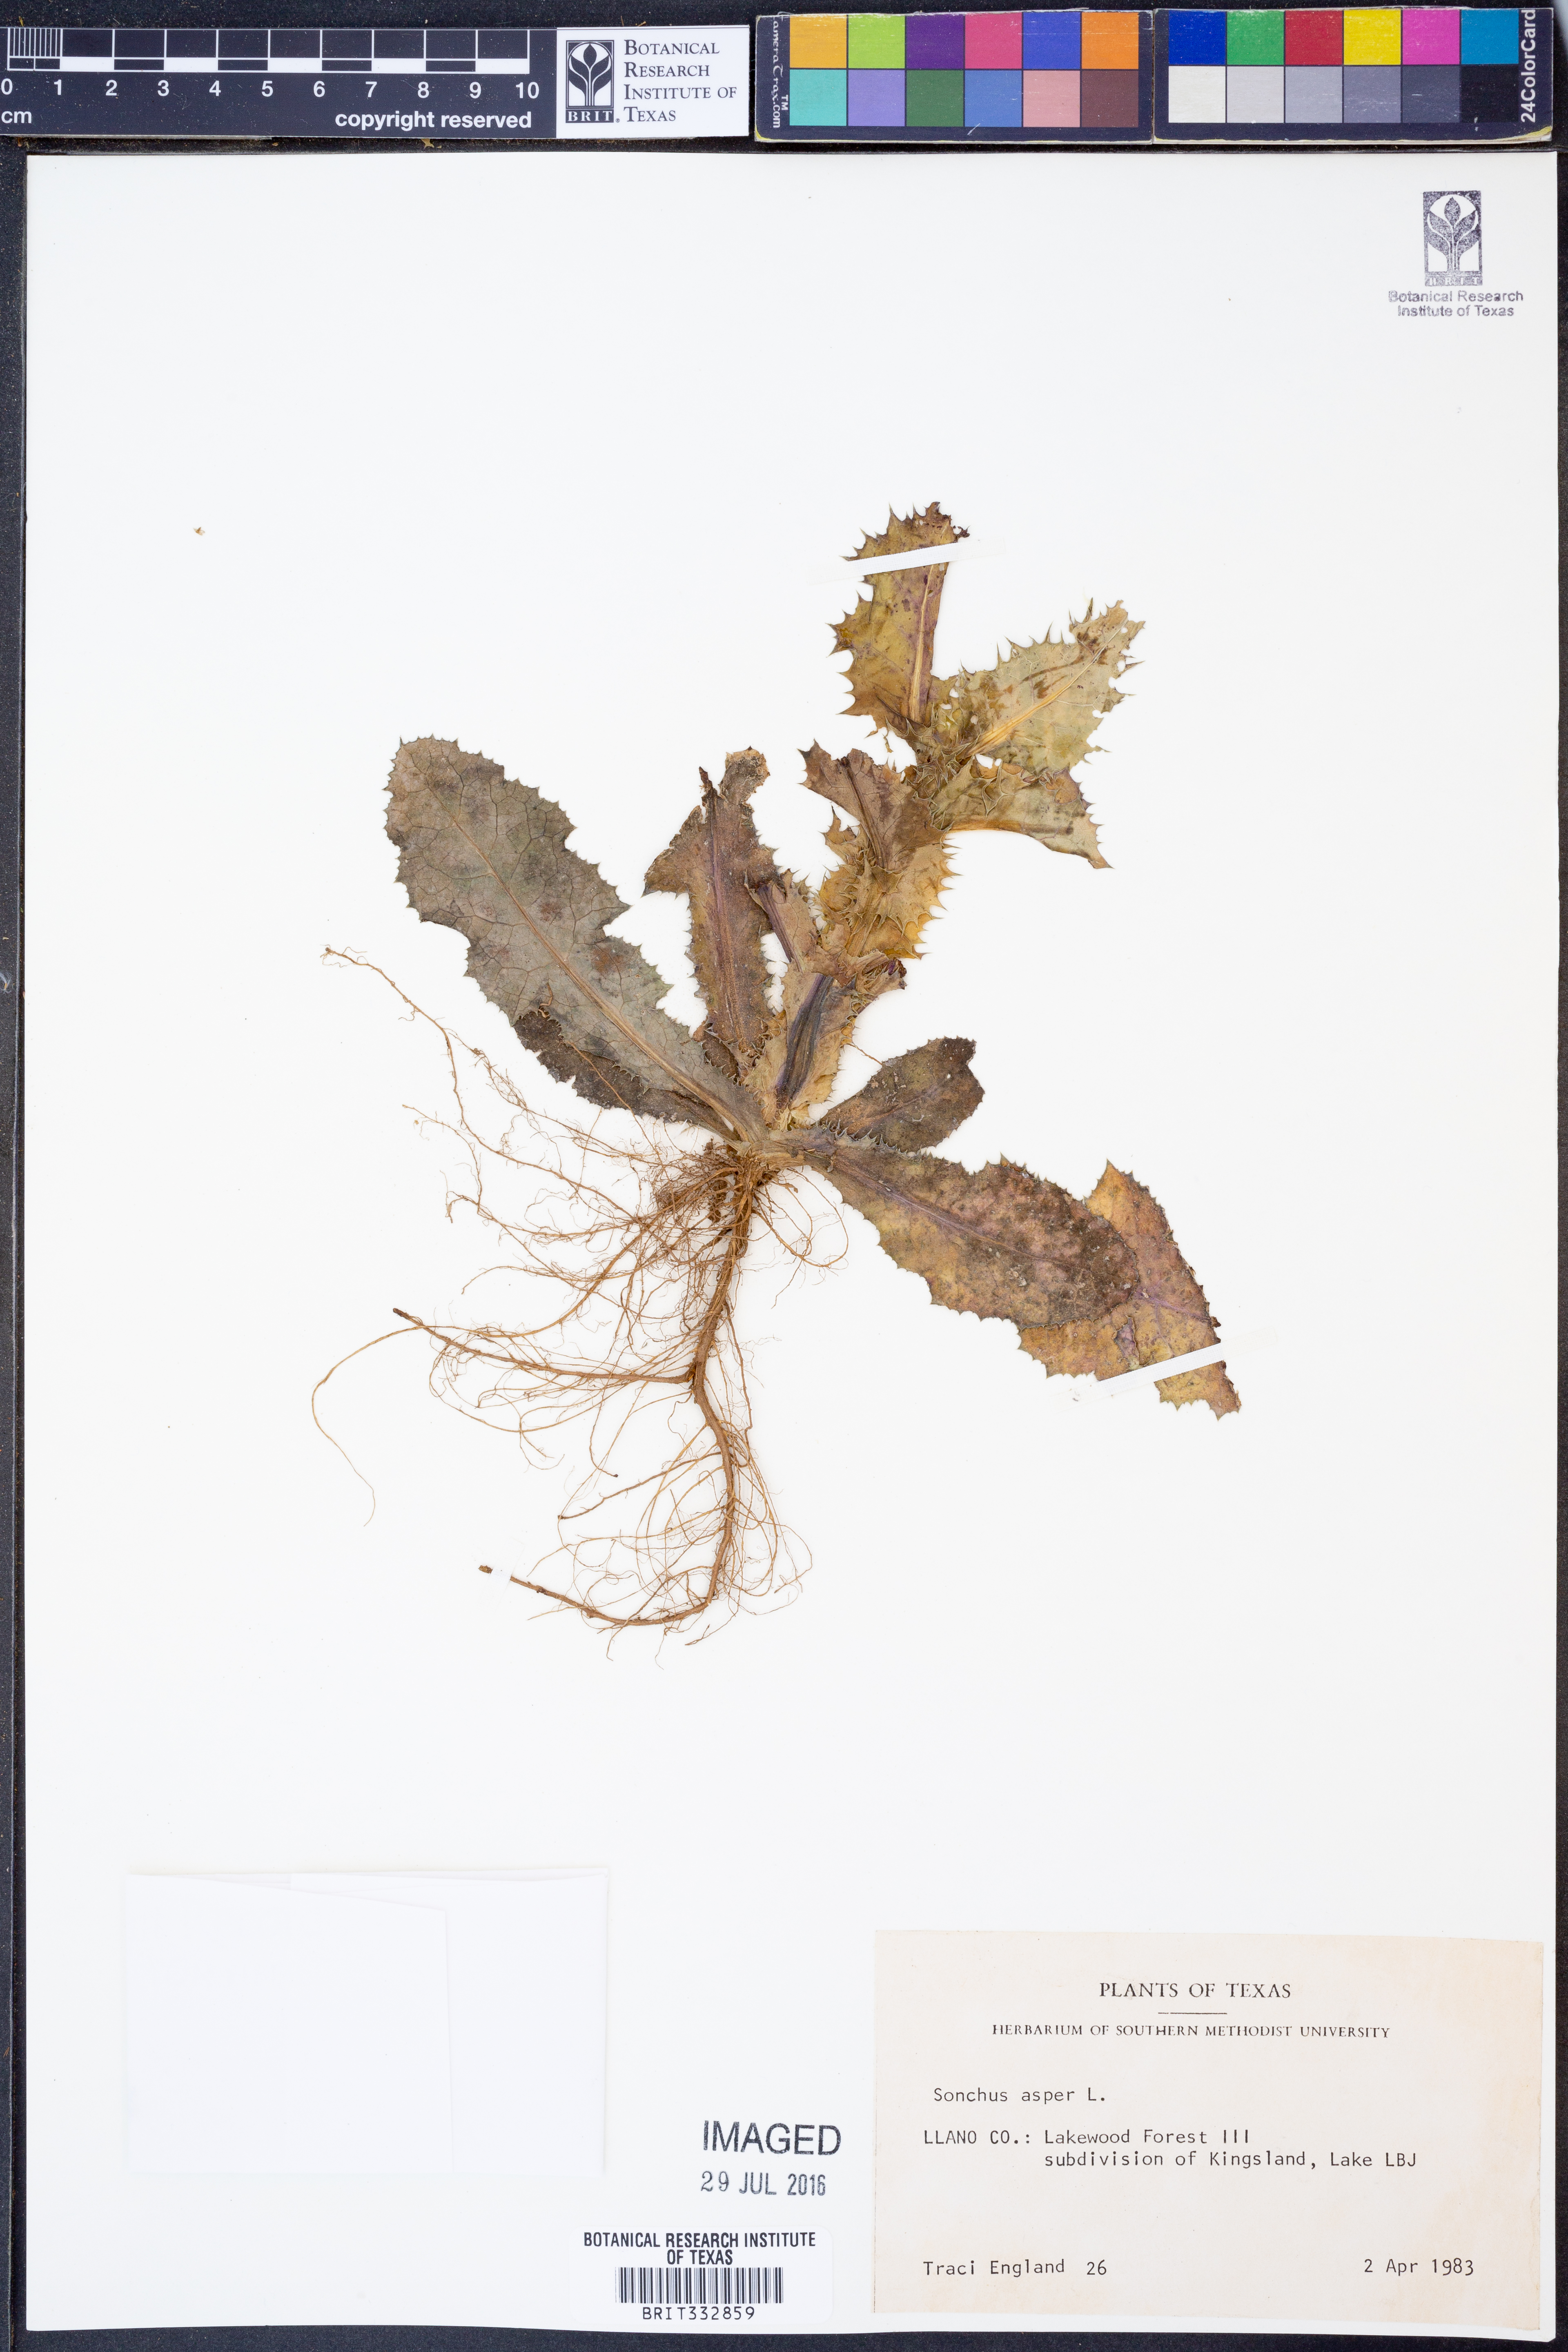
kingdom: Plantae
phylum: Tracheophyta
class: Magnoliopsida
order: Asterales
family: Asteraceae
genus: Sonchus
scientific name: Sonchus asper
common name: Prickly sow-thistle
